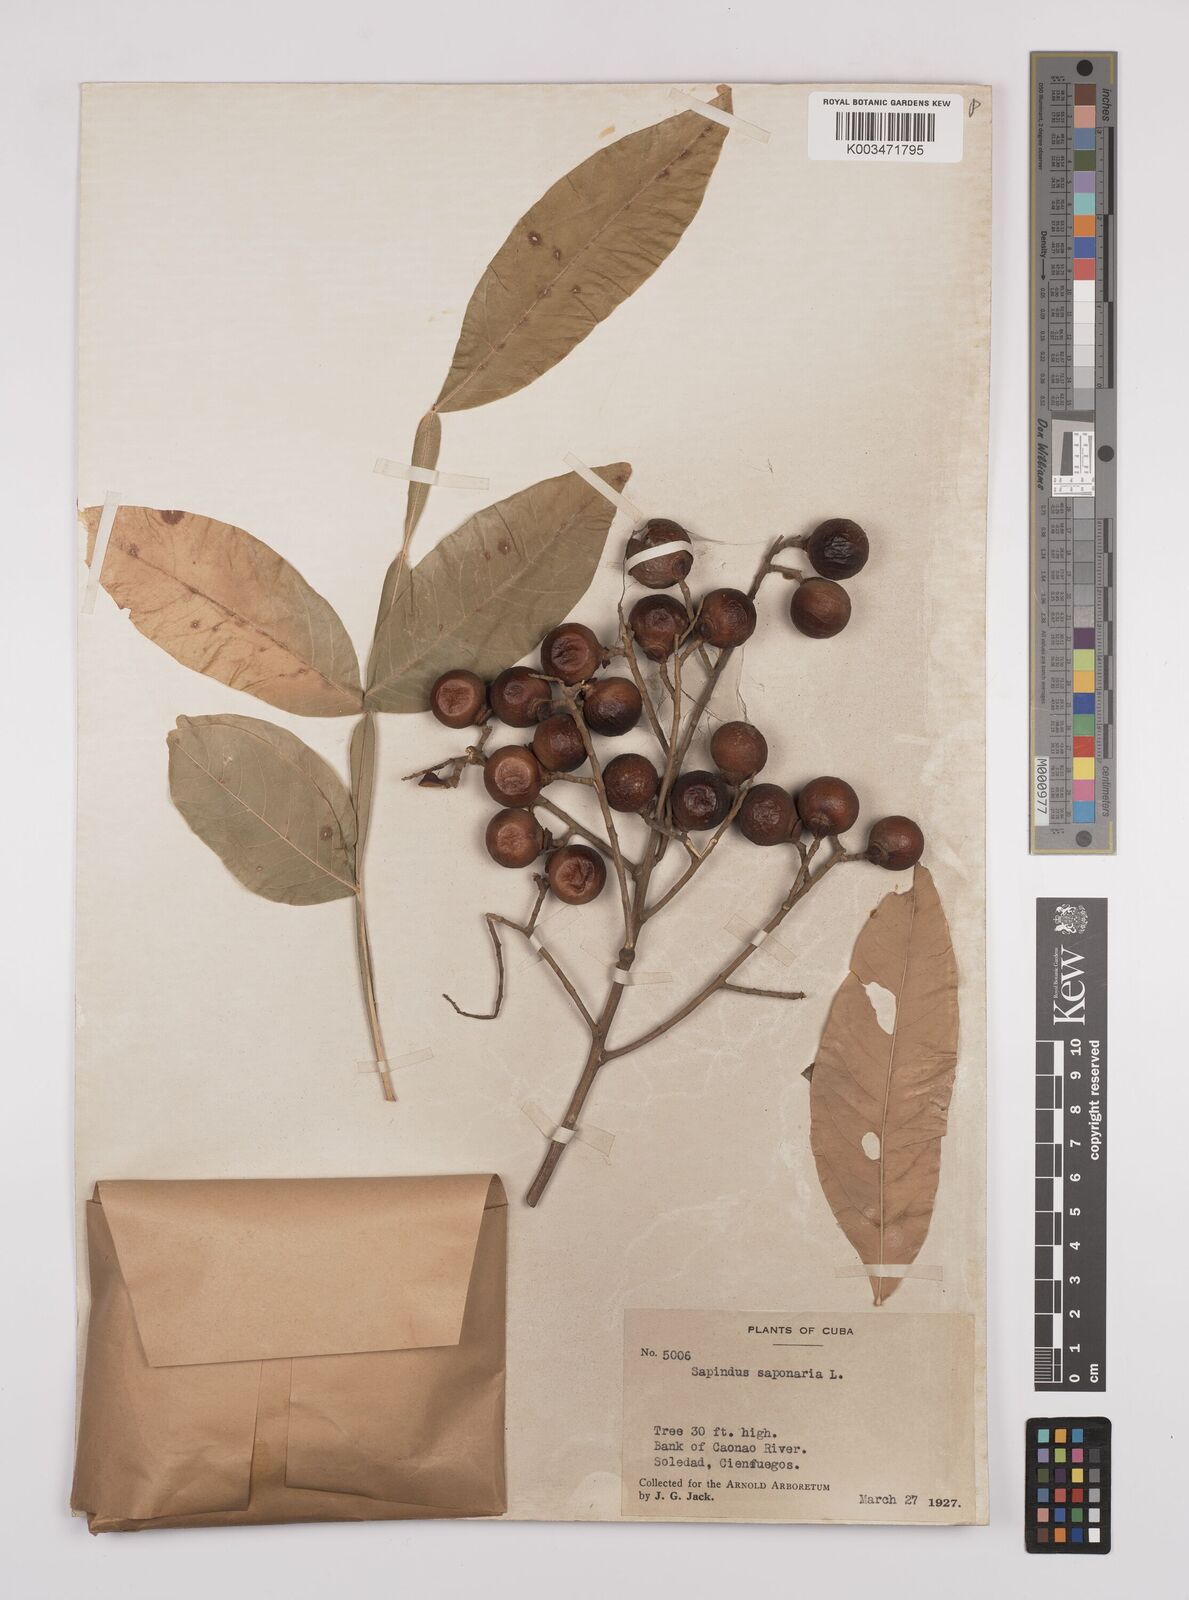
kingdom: Plantae
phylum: Tracheophyta
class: Magnoliopsida
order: Sapindales
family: Sapindaceae
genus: Sapindus
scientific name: Sapindus saponaria
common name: Wingleaf soapberry
